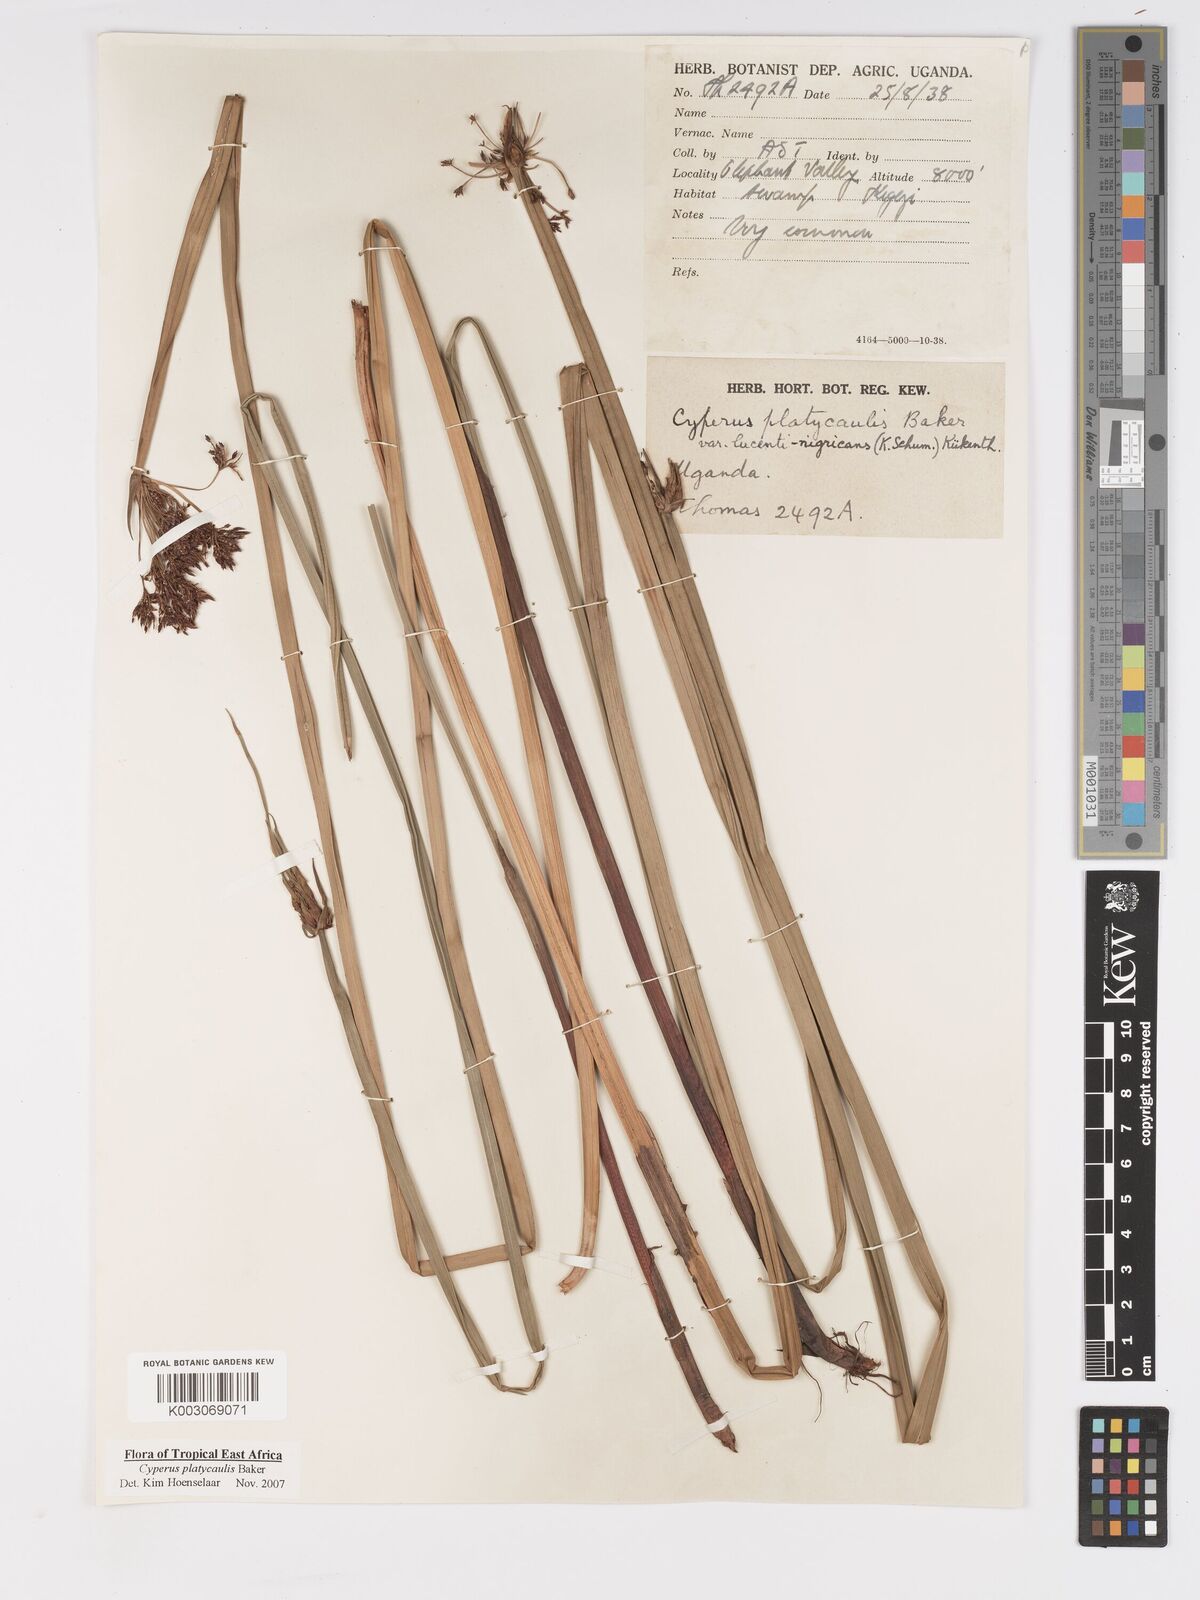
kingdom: Plantae
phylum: Tracheophyta
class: Liliopsida
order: Poales
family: Cyperaceae
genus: Cyperus
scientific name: Cyperus platycaulis
